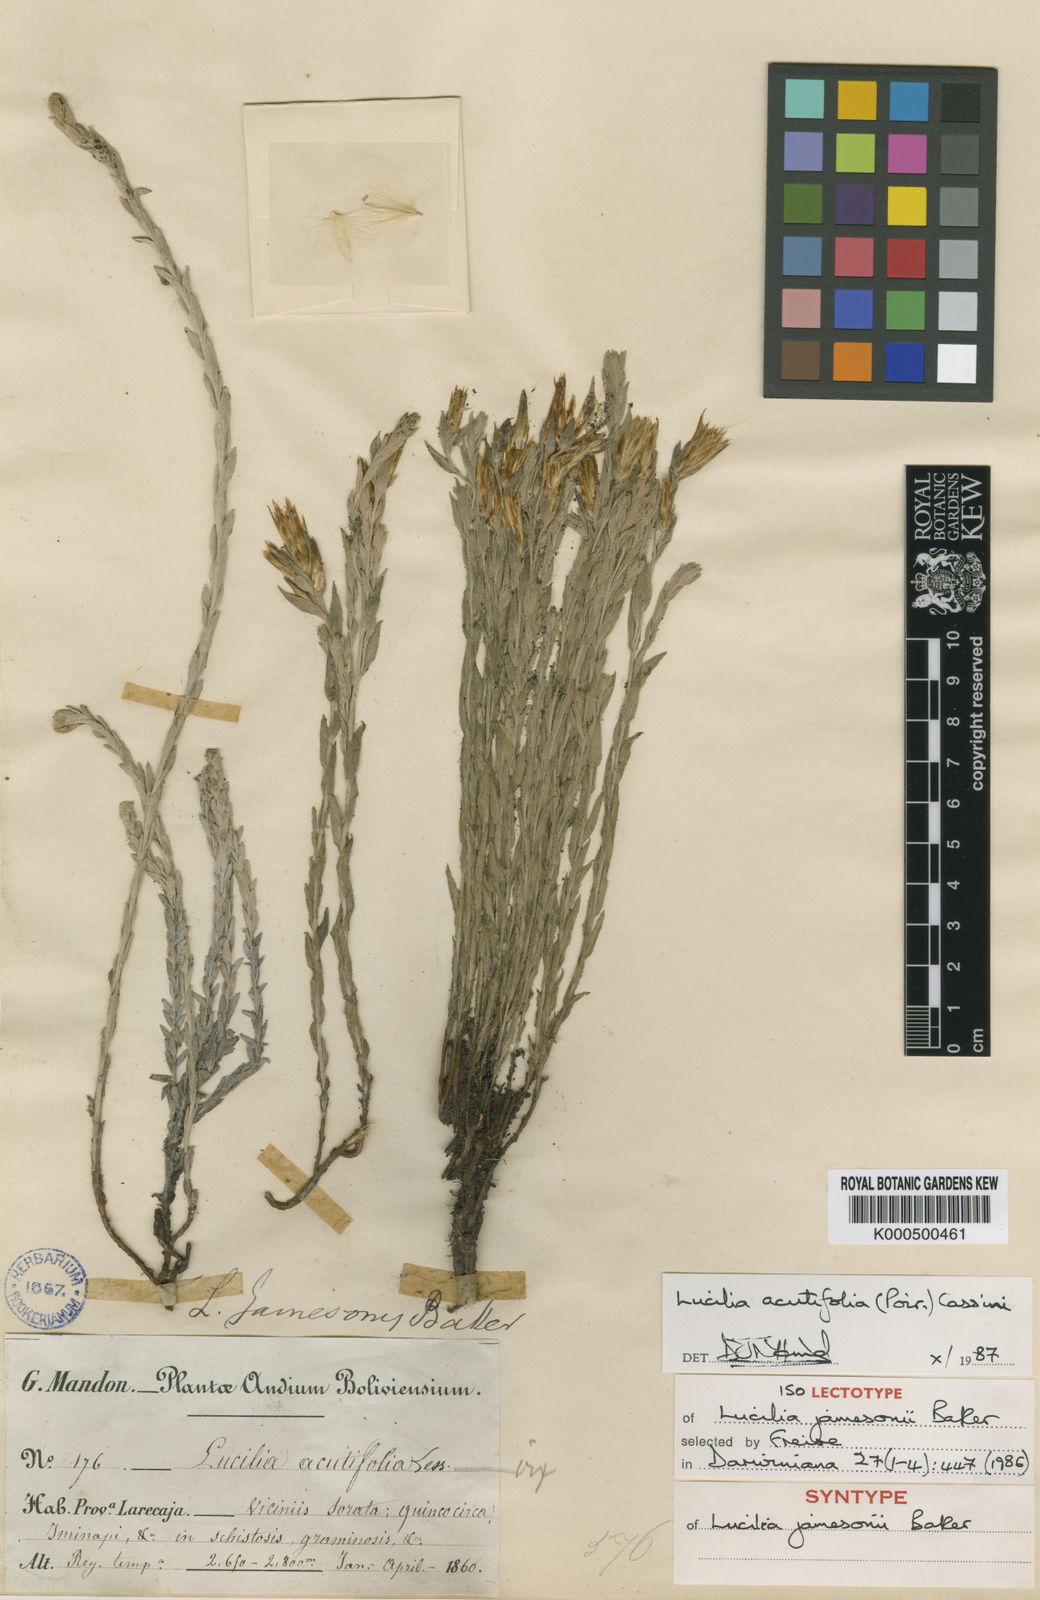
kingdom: Plantae
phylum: Tracheophyta
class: Magnoliopsida
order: Asterales
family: Asteraceae
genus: Lucilia
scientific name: Lucilia acutifolia
